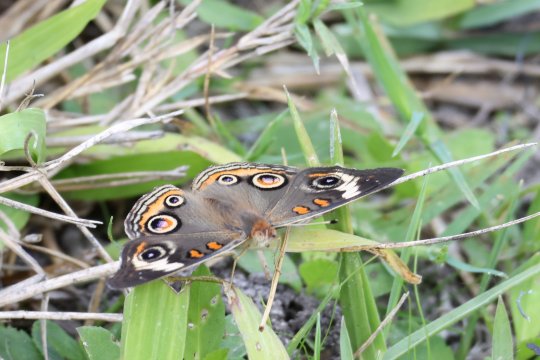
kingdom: Animalia
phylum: Arthropoda
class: Insecta
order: Lepidoptera
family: Nymphalidae
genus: Junonia
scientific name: Junonia coenia
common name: Common Buckeye
